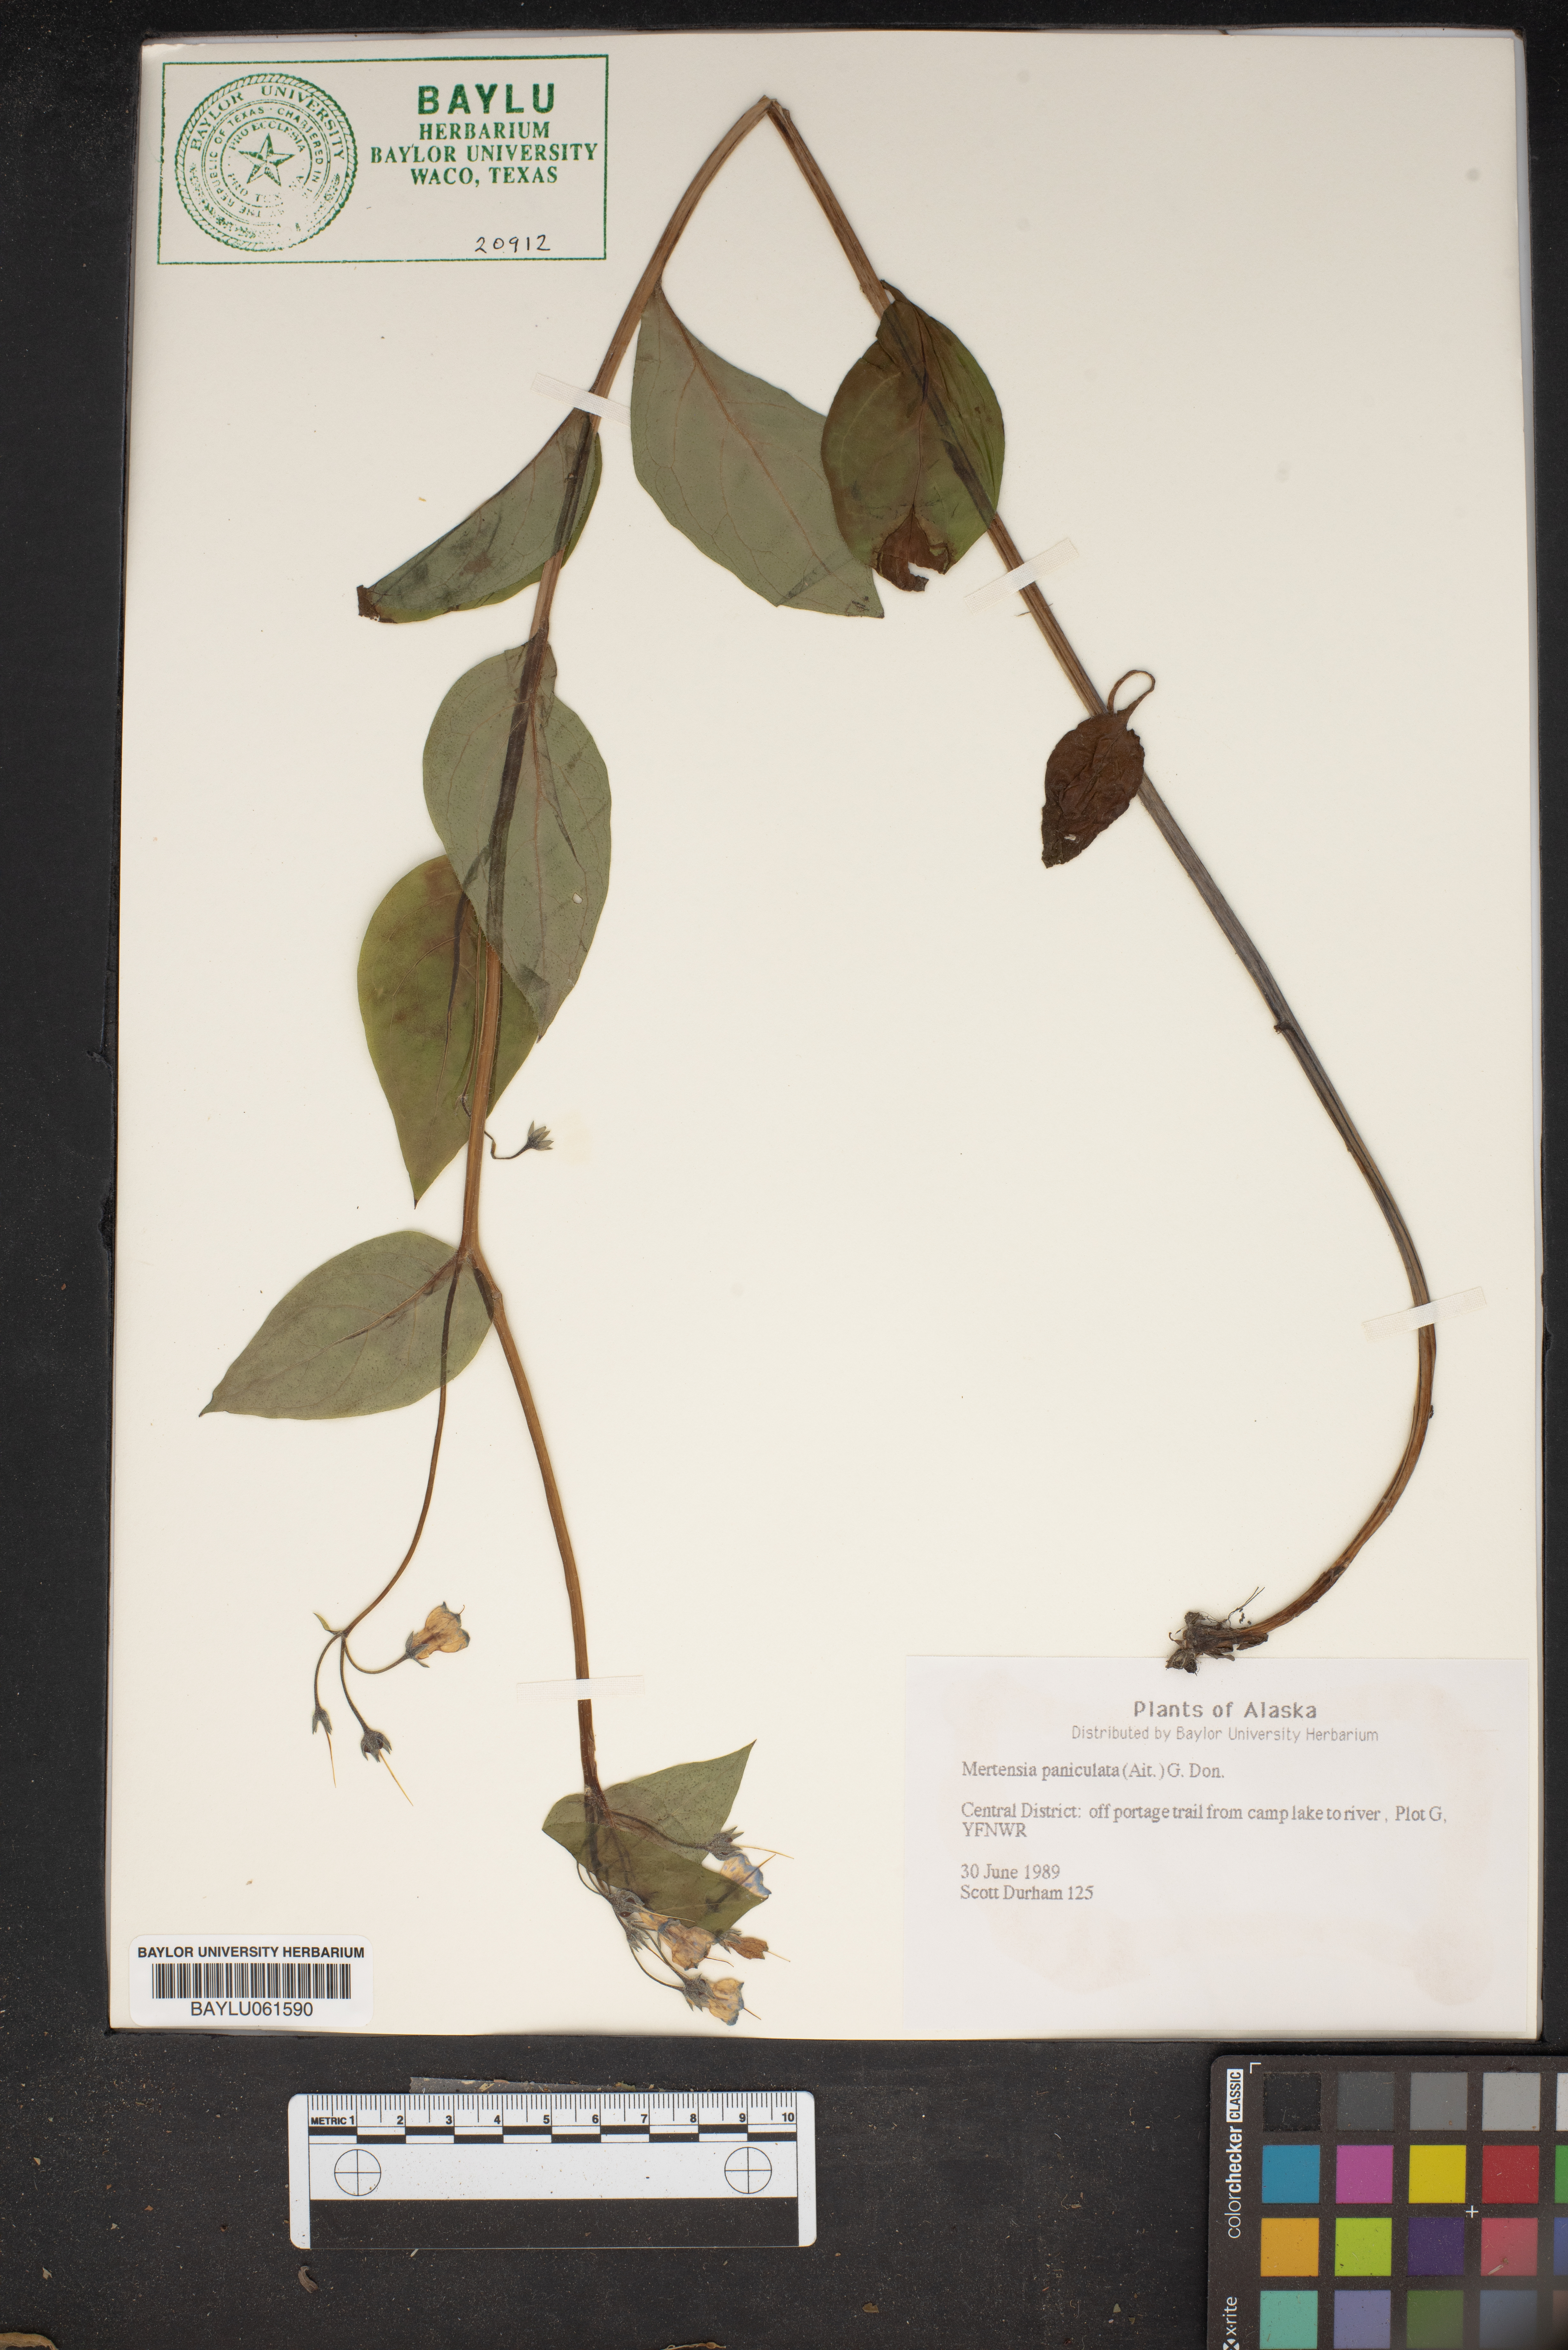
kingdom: Plantae
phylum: Tracheophyta
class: Magnoliopsida
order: Boraginales
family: Boraginaceae
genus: Mertensia
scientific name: Mertensia paniculata
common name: Panicled bluebells
